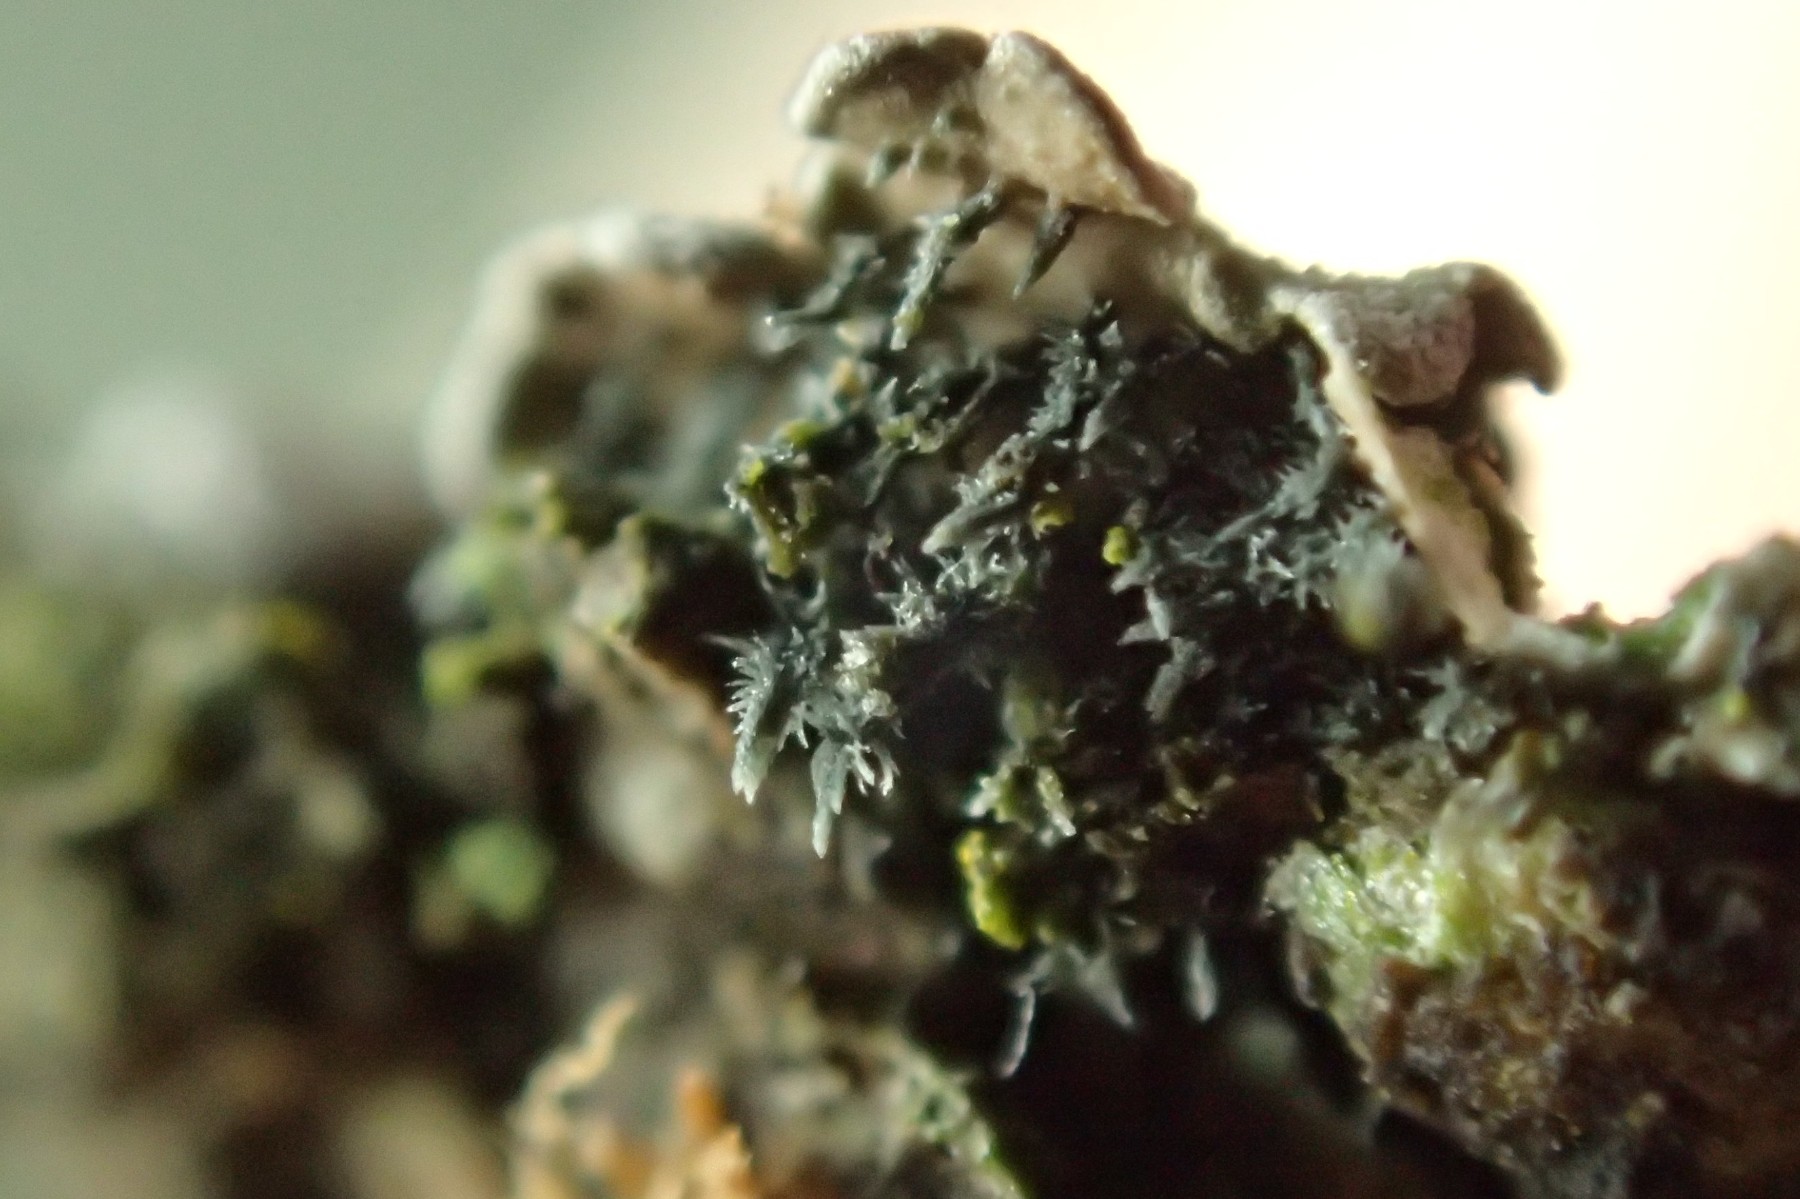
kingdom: Fungi
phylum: Ascomycota
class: Lecanoromycetes
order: Caliciales
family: Physciaceae
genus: Physconia
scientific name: Physconia enteroxantha
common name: grynet dugrosetlav
